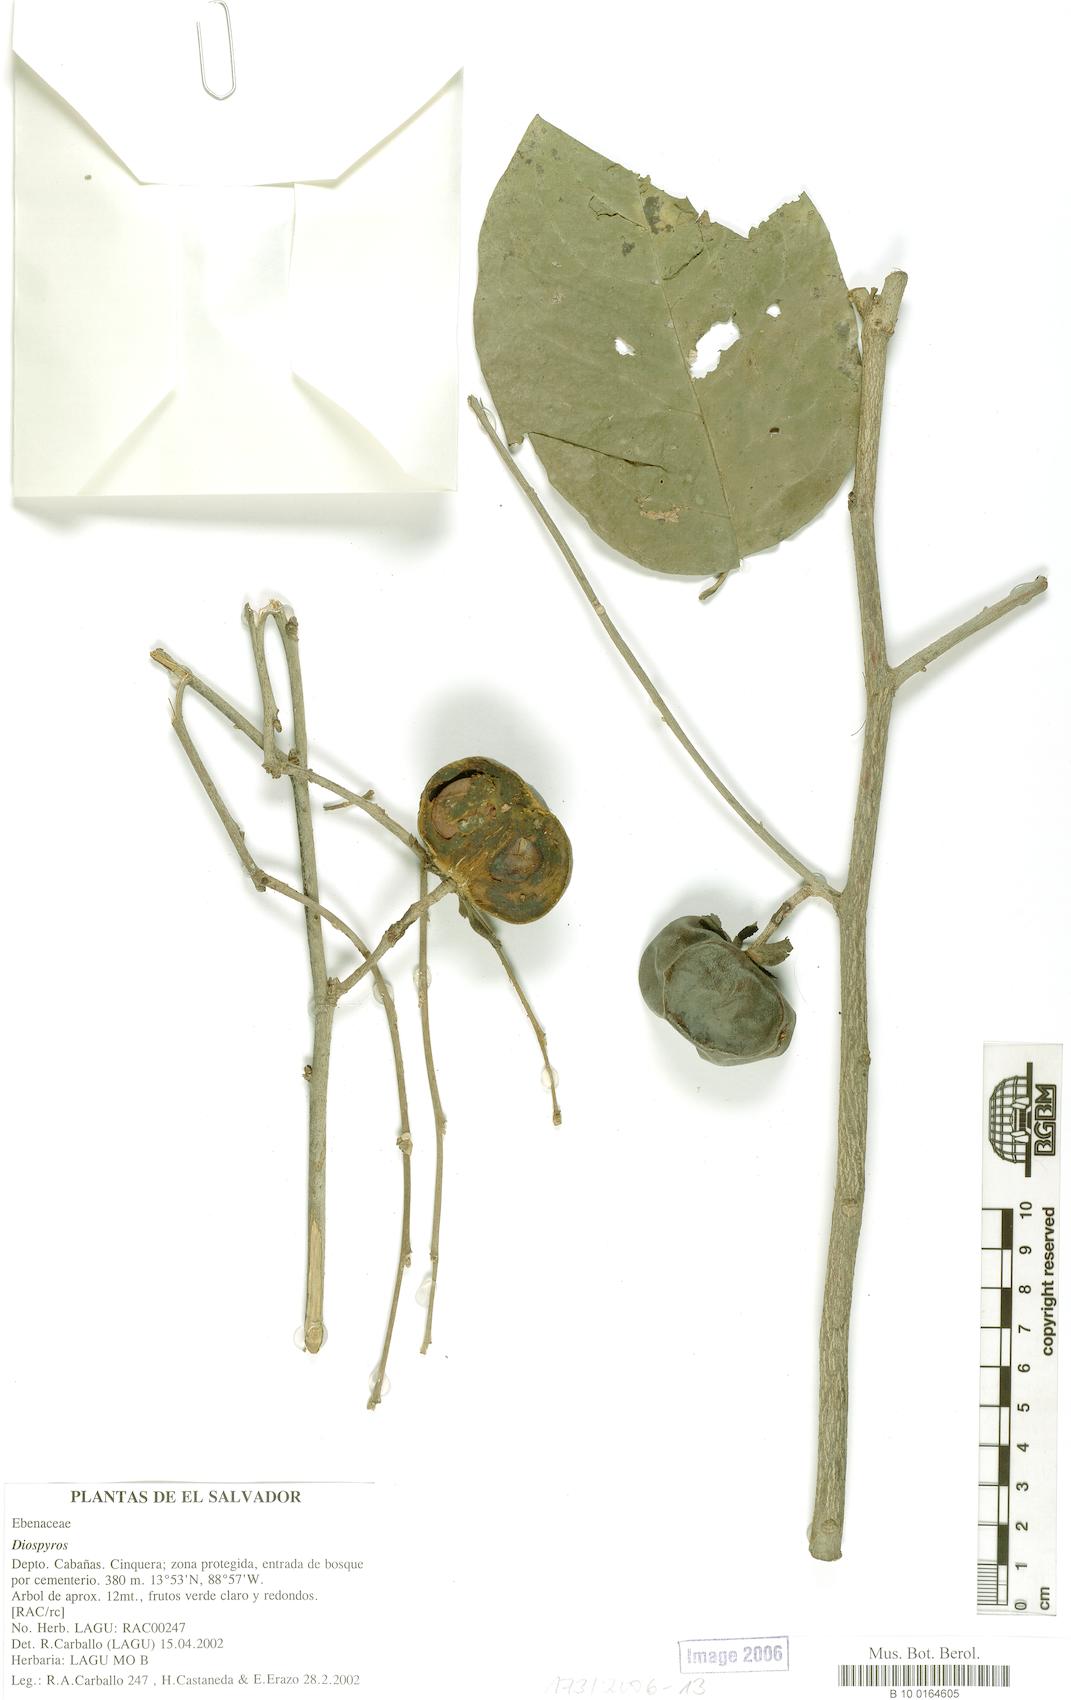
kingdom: Plantae
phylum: Tracheophyta
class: Magnoliopsida
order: Ericales
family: Ebenaceae
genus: Diospyros
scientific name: Diospyros rekoi
